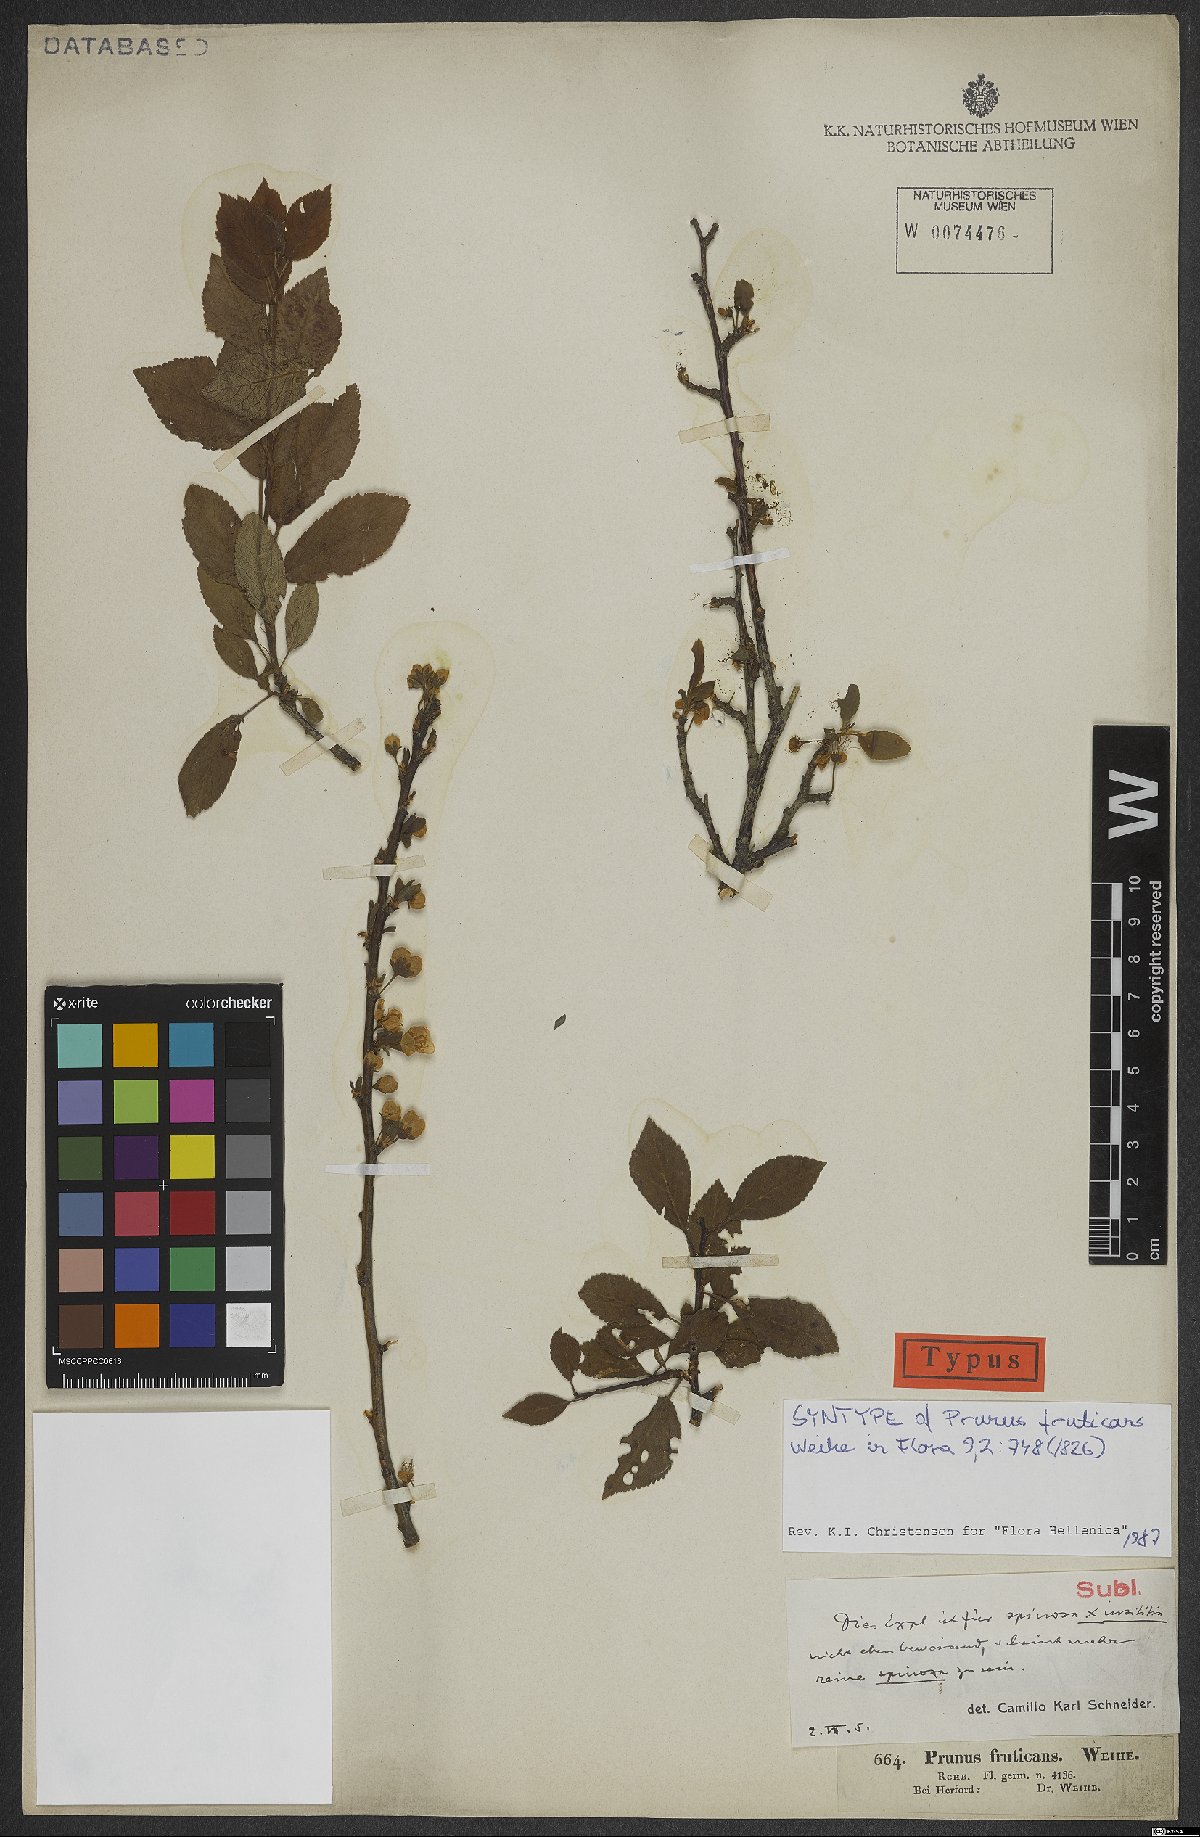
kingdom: Plantae
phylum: Tracheophyta
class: Magnoliopsida
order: Rosales
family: Rosaceae
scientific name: Rosaceae
